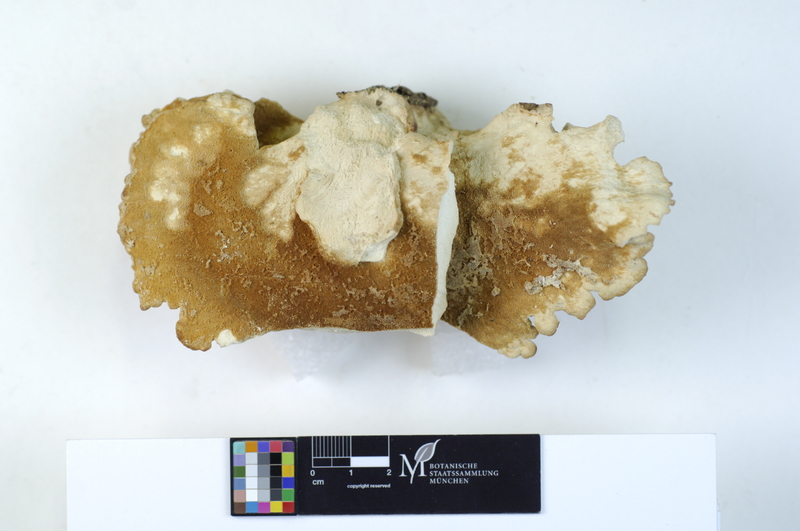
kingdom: Plantae
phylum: Tracheophyta
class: Magnoliopsida
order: Fagales
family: Fagaceae
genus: Fagus
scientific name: Fagus sylvatica
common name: Beech
